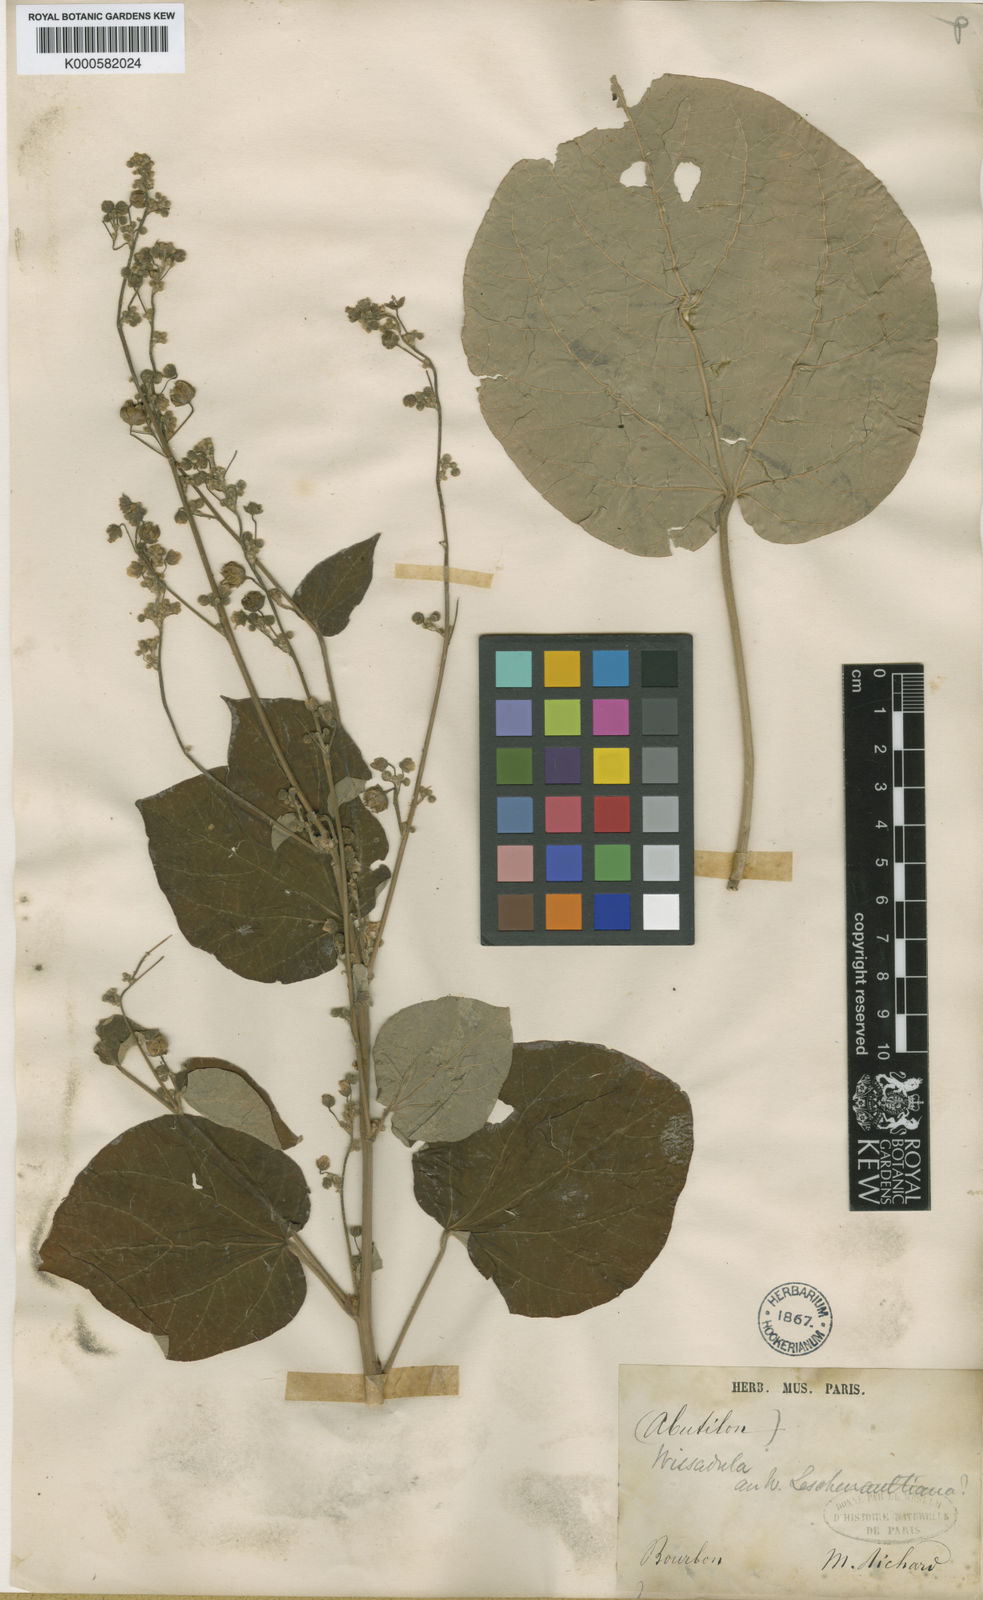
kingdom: Plantae
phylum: Tracheophyta
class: Magnoliopsida
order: Malvales
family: Malvaceae
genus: Wissadula
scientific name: Wissadula periplocifolia
